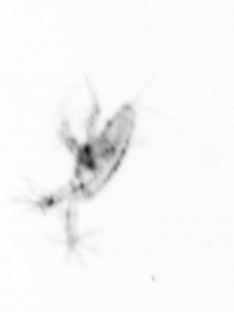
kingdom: Animalia
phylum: Arthropoda
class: Copepoda
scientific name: Copepoda
